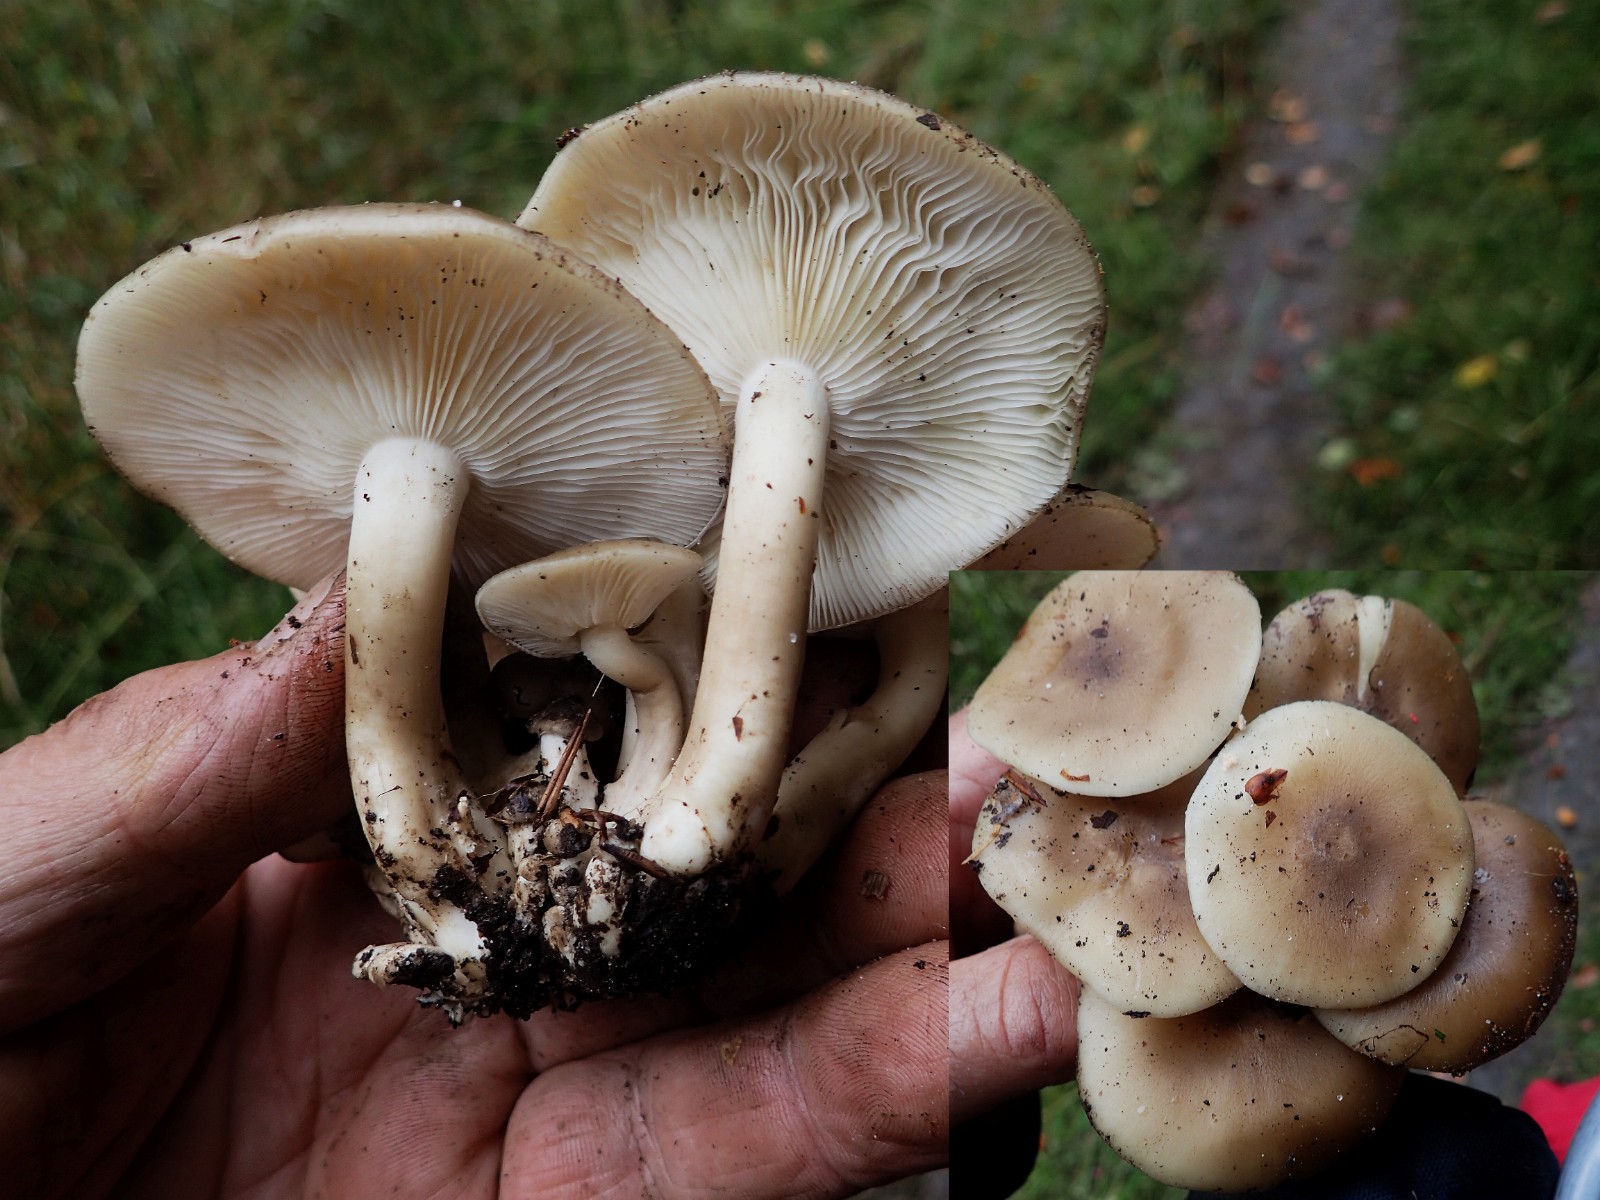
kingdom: Fungi
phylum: Basidiomycota
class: Agaricomycetes
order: Agaricales
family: Lyophyllaceae
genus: Lyophyllum
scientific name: Lyophyllum decastes
